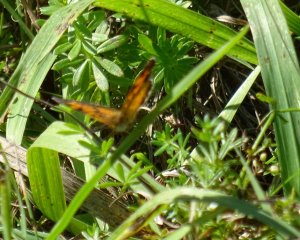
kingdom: Animalia
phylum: Arthropoda
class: Insecta
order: Lepidoptera
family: Nymphalidae
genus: Phyciodes
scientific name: Phyciodes
